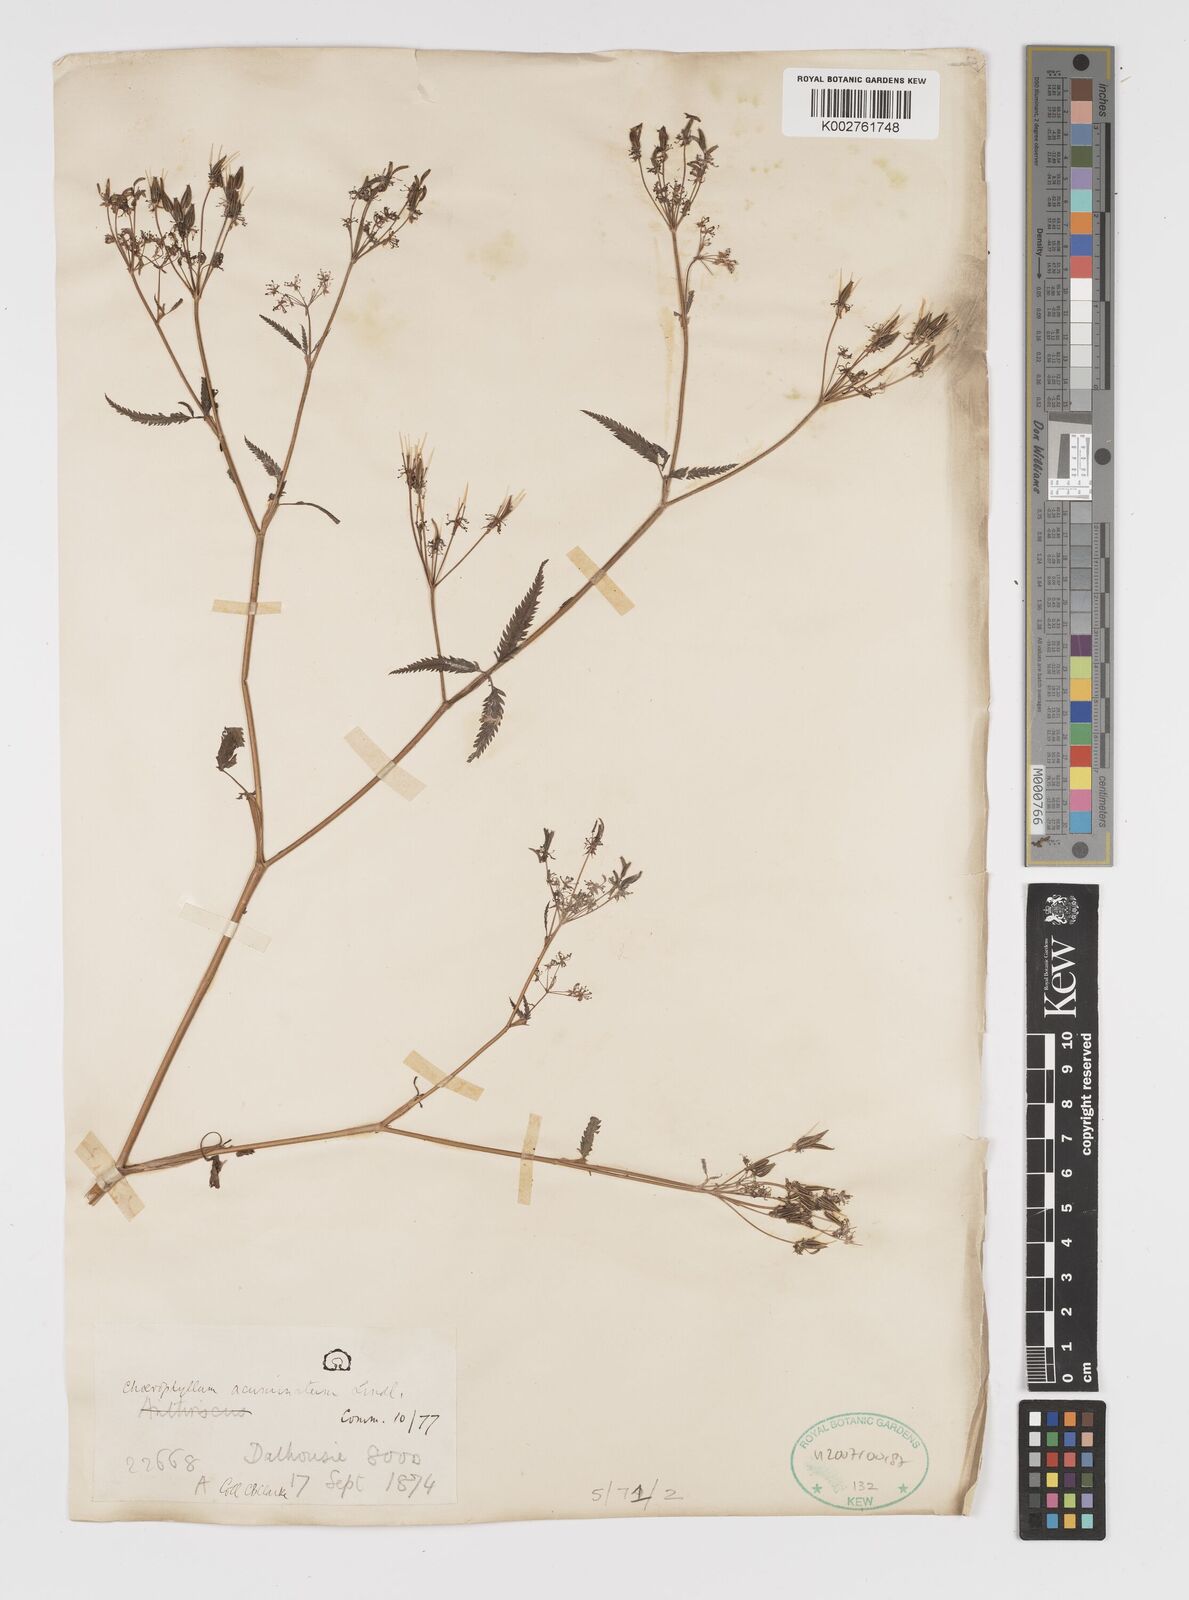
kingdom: Plantae
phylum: Tracheophyta
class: Magnoliopsida
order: Apiales
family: Apiaceae
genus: Chaerophyllum
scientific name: Chaerophyllum reflexum
